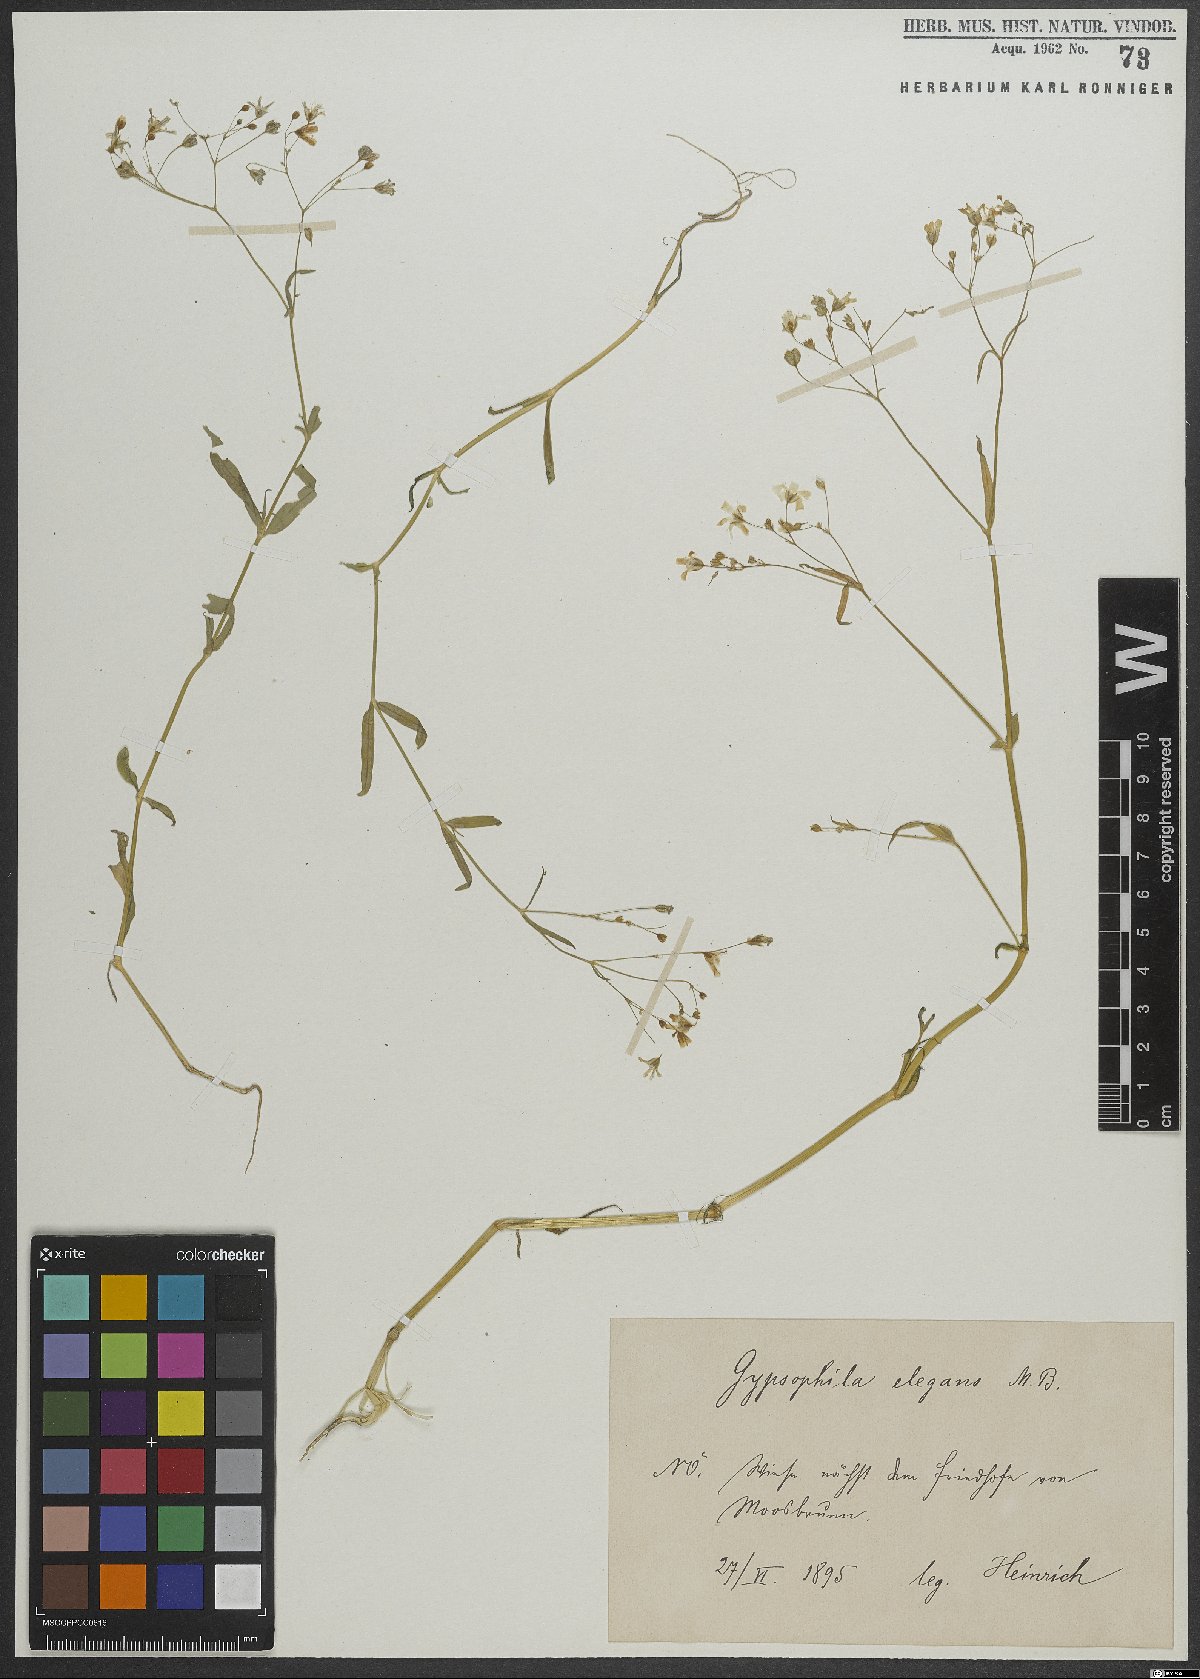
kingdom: Plantae
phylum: Tracheophyta
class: Magnoliopsida
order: Caryophyllales
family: Caryophyllaceae
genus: Gypsophila
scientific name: Gypsophila elegans
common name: Showy baby's-breath
